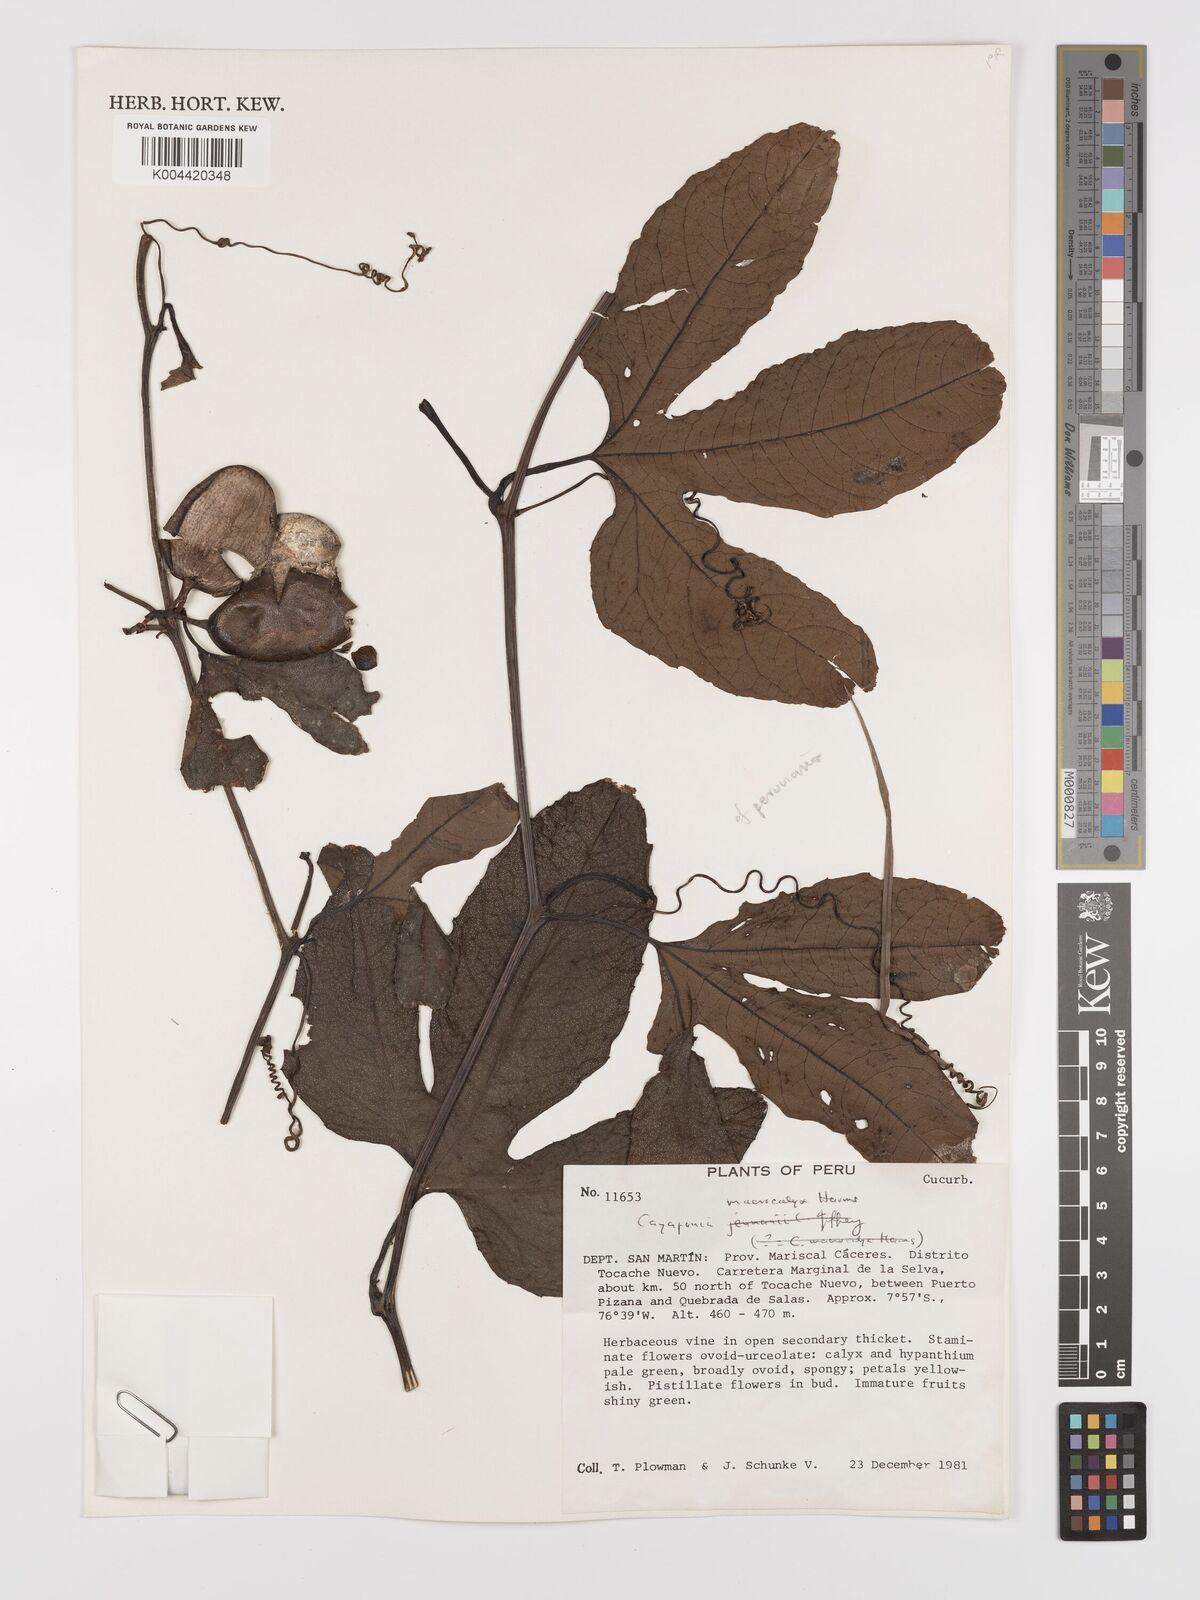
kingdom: Plantae
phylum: Tracheophyta
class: Magnoliopsida
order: Cucurbitales
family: Cucurbitaceae
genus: Cayaponia
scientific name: Cayaponia macrocalyx
